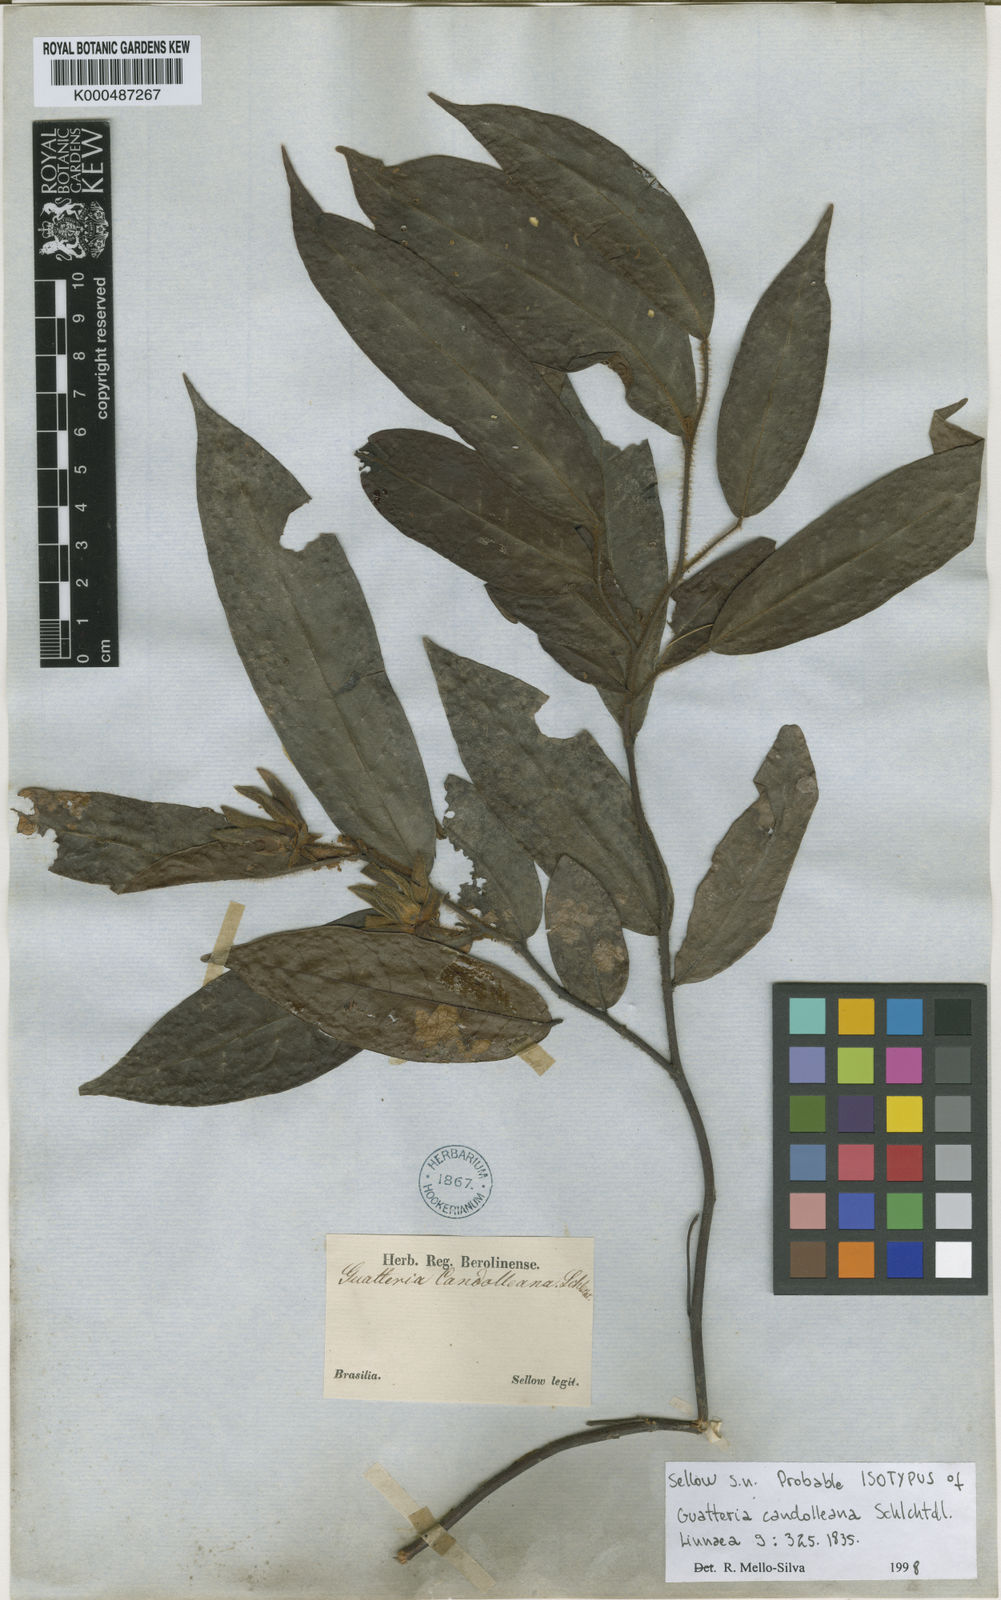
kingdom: Plantae
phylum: Tracheophyta
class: Magnoliopsida
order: Magnoliales
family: Annonaceae
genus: Guatteria
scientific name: Guatteria candolleana
